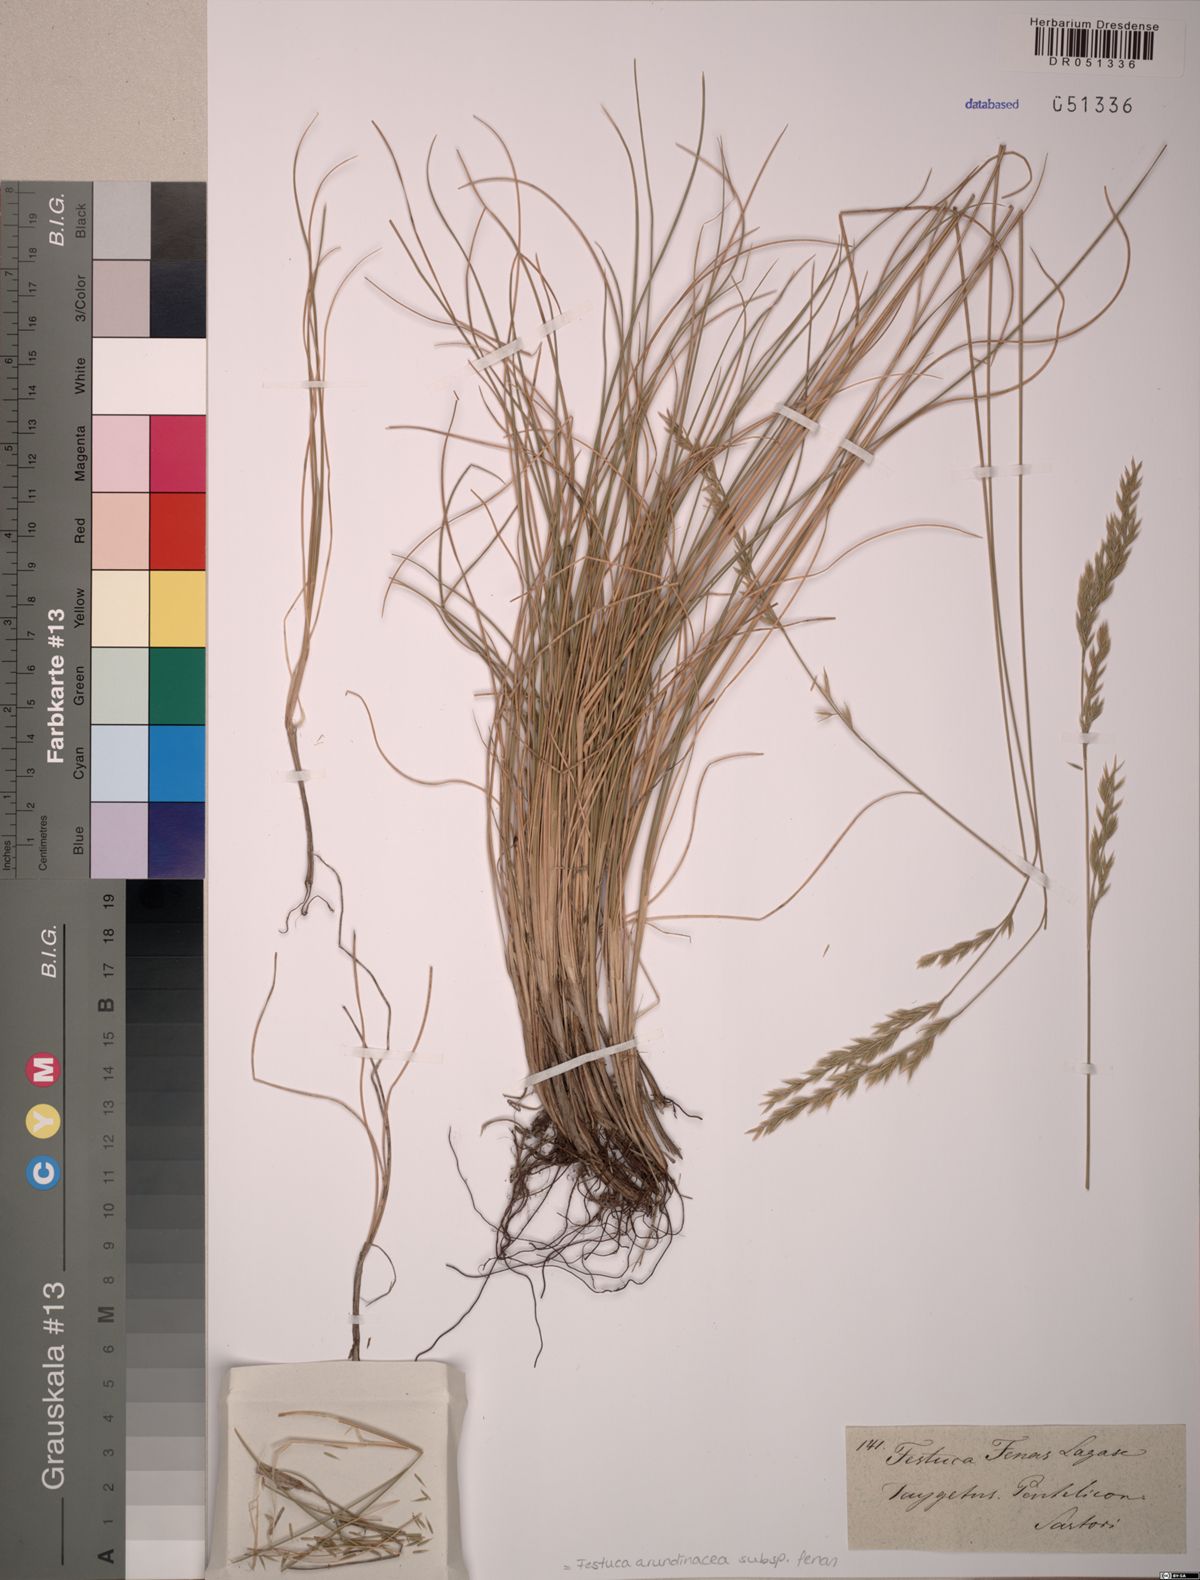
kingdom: Plantae
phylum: Tracheophyta
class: Liliopsida
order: Poales
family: Poaceae
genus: Lolium
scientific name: Lolium interruptum
